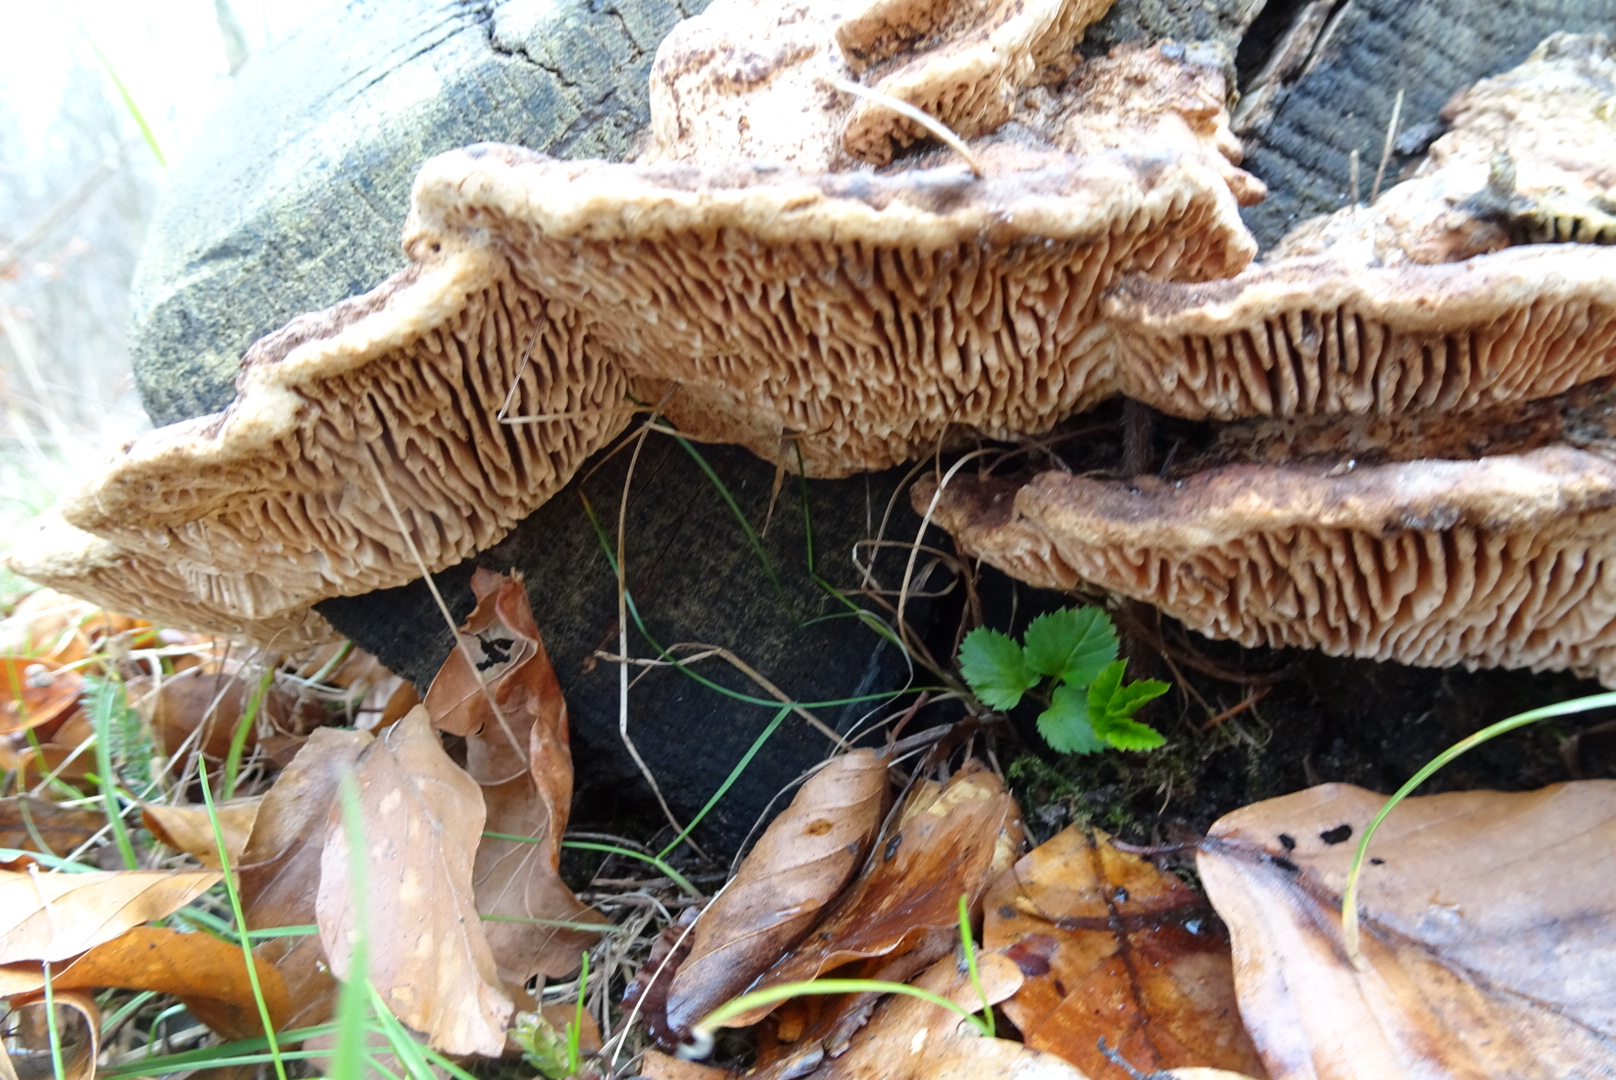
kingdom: Fungi
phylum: Basidiomycota
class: Agaricomycetes
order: Polyporales
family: Fomitopsidaceae
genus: Daedalea
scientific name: Daedalea quercina
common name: ege-labyrintsvamp
